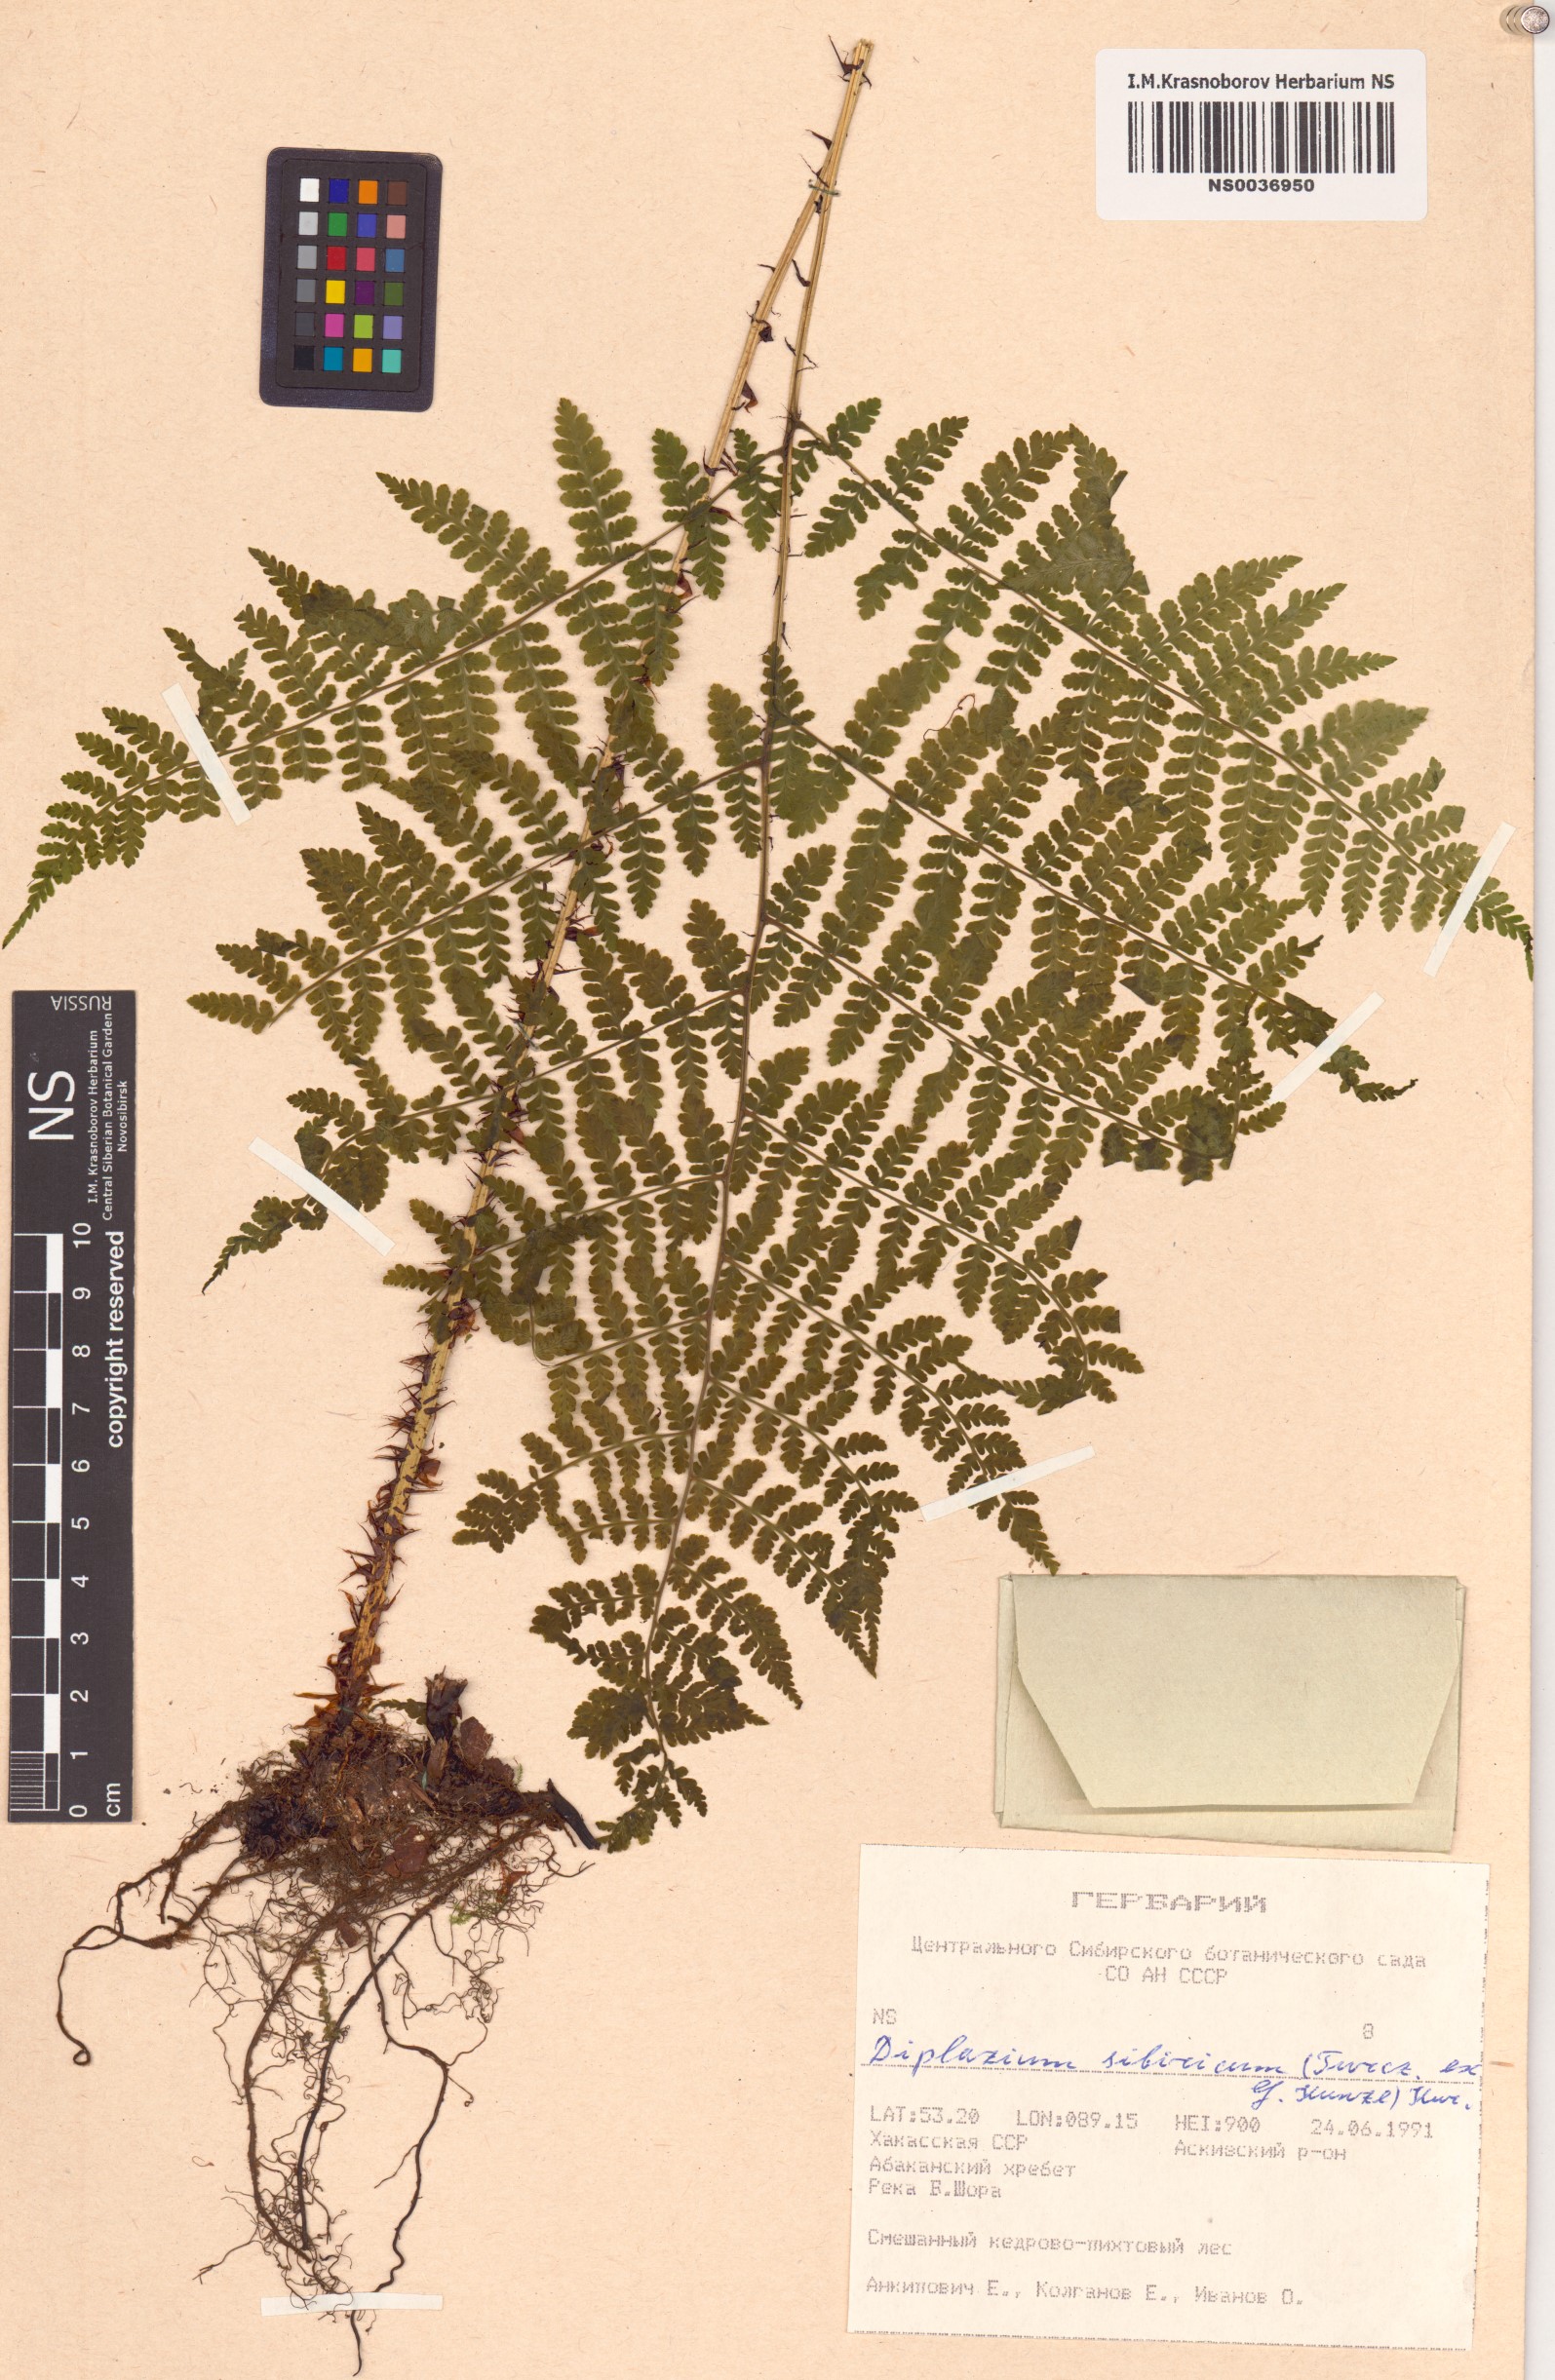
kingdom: Plantae
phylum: Tracheophyta
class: Polypodiopsida
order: Polypodiales
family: Athyriaceae
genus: Diplazium
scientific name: Diplazium sibiricum
